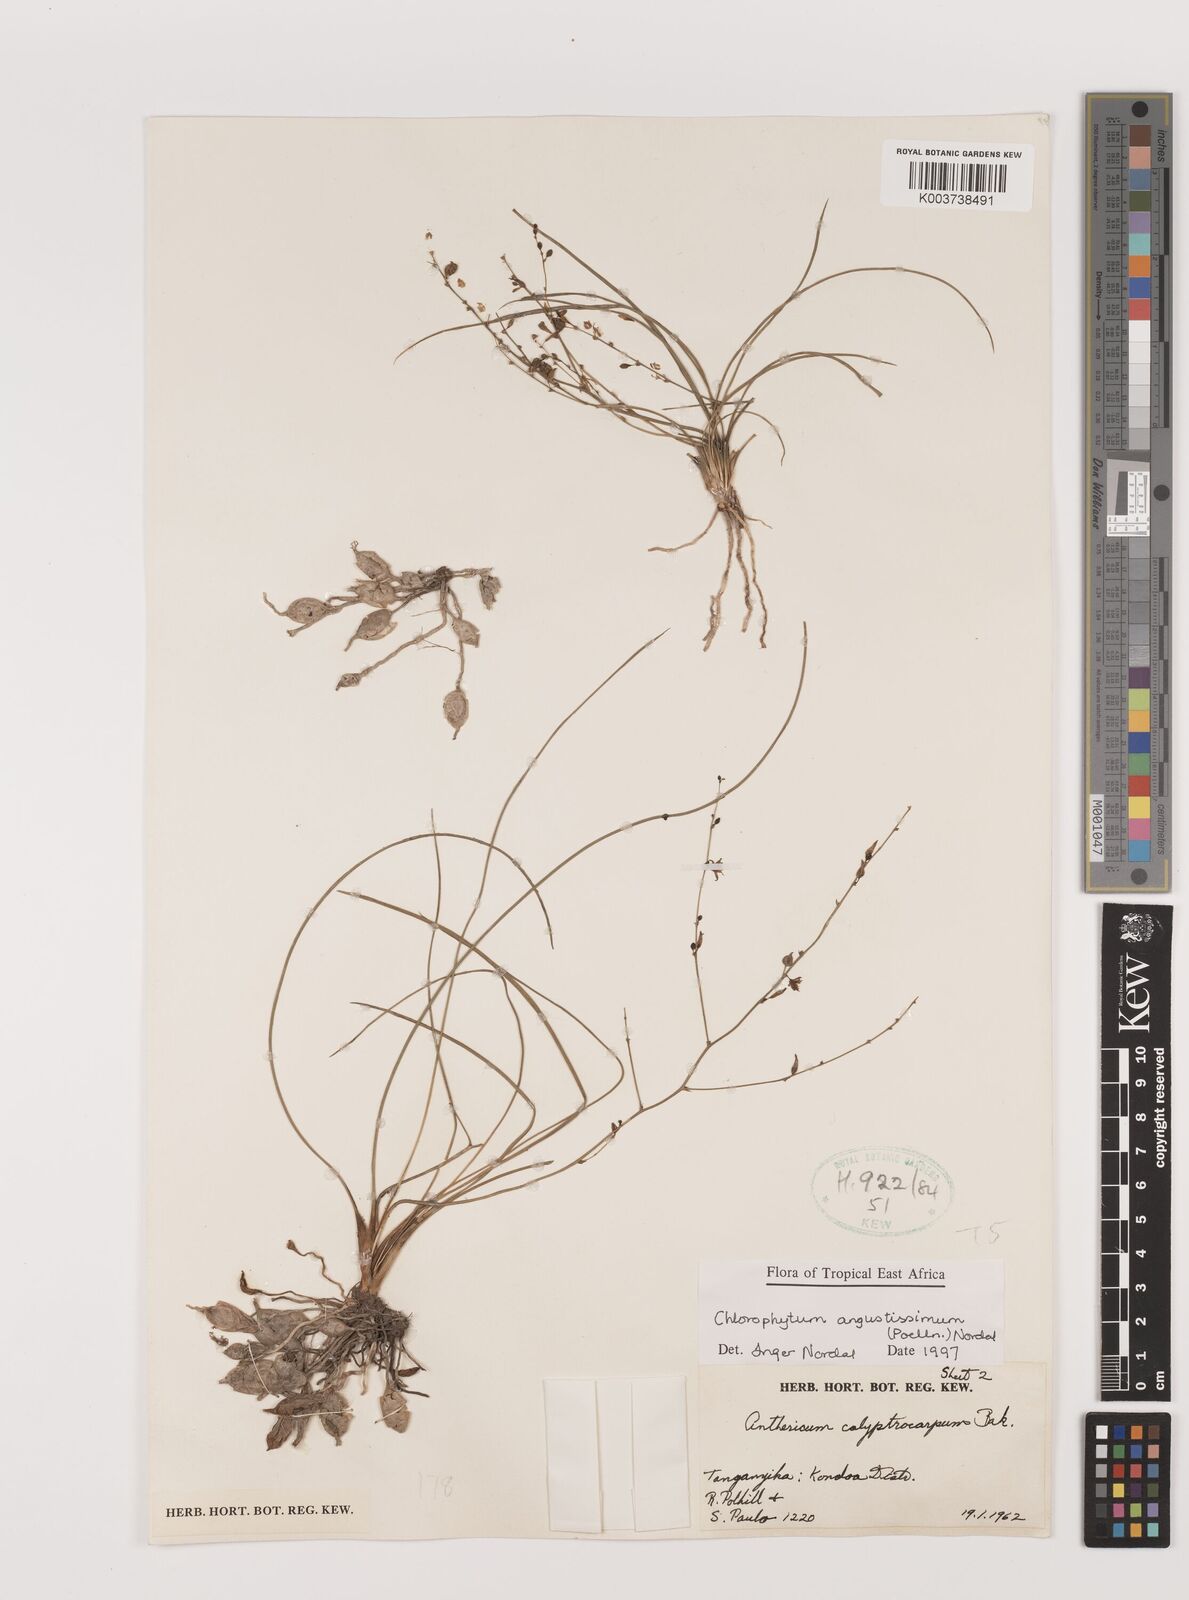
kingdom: Plantae
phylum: Tracheophyta
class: Liliopsida
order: Asparagales
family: Asparagaceae
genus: Chlorophytum
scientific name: Chlorophytum angustissimum
